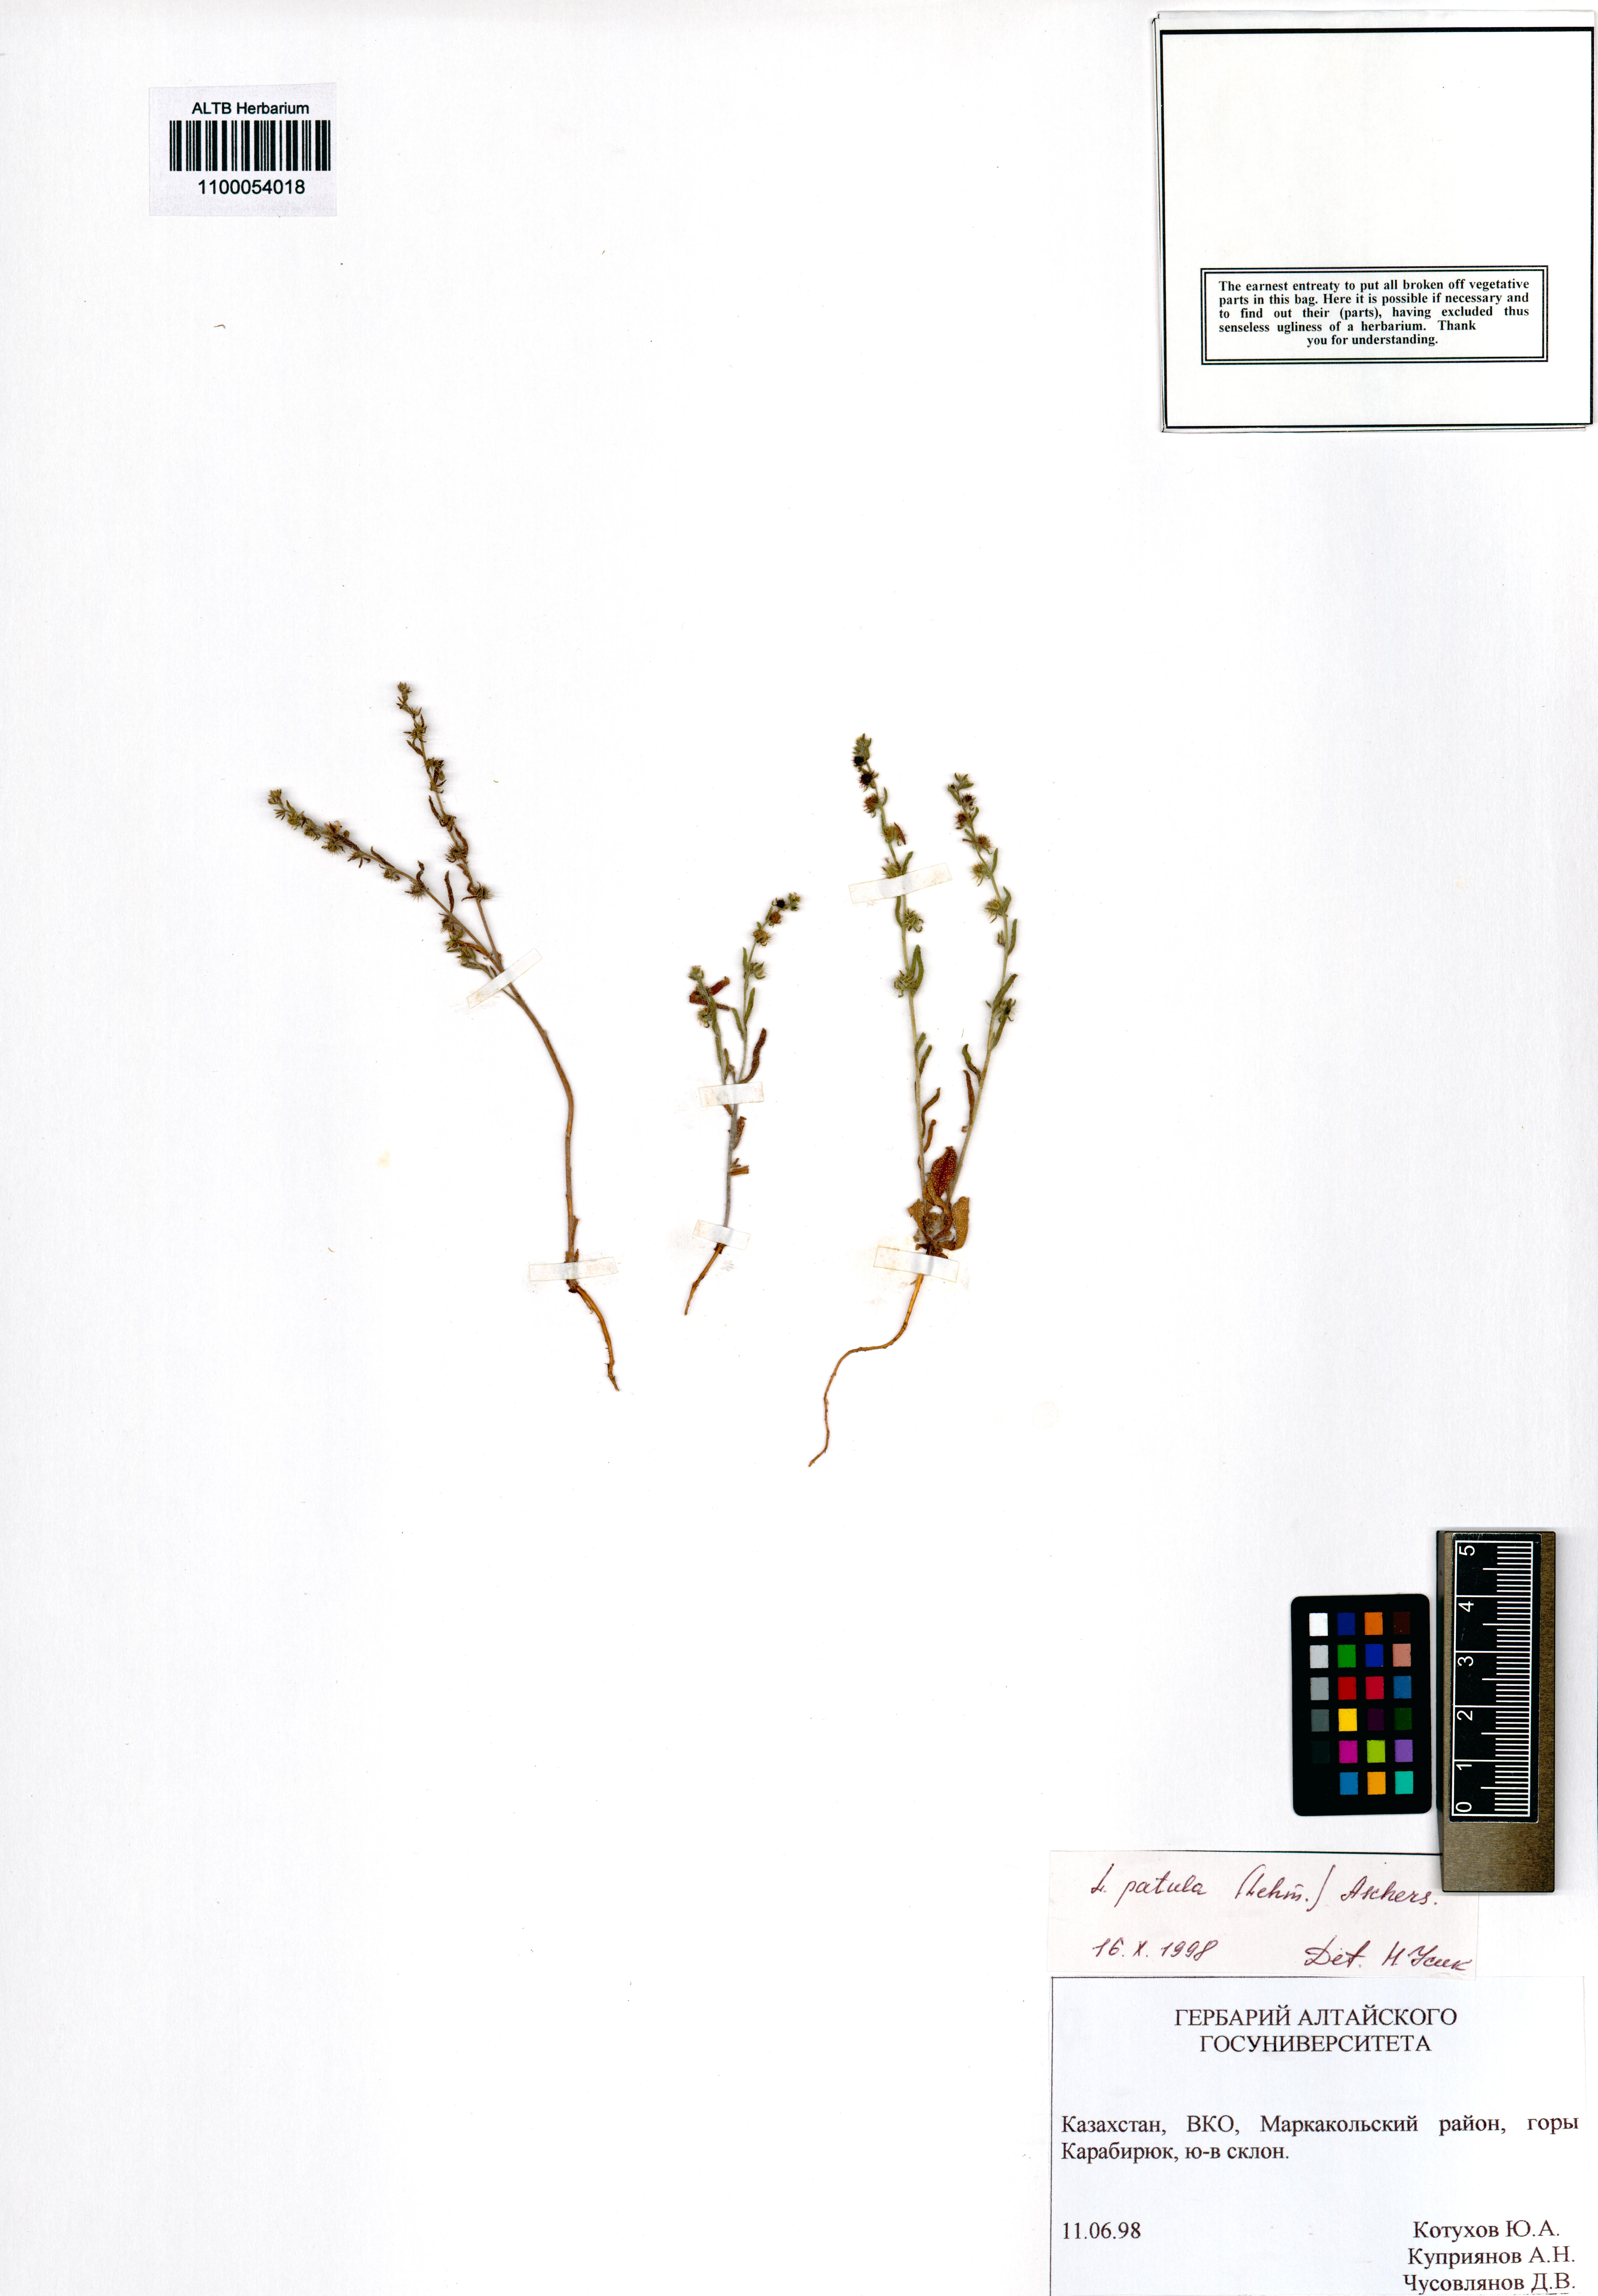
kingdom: Plantae
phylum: Tracheophyta
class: Magnoliopsida
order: Boraginales
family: Boraginaceae
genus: Lappula
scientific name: Lappula patula
